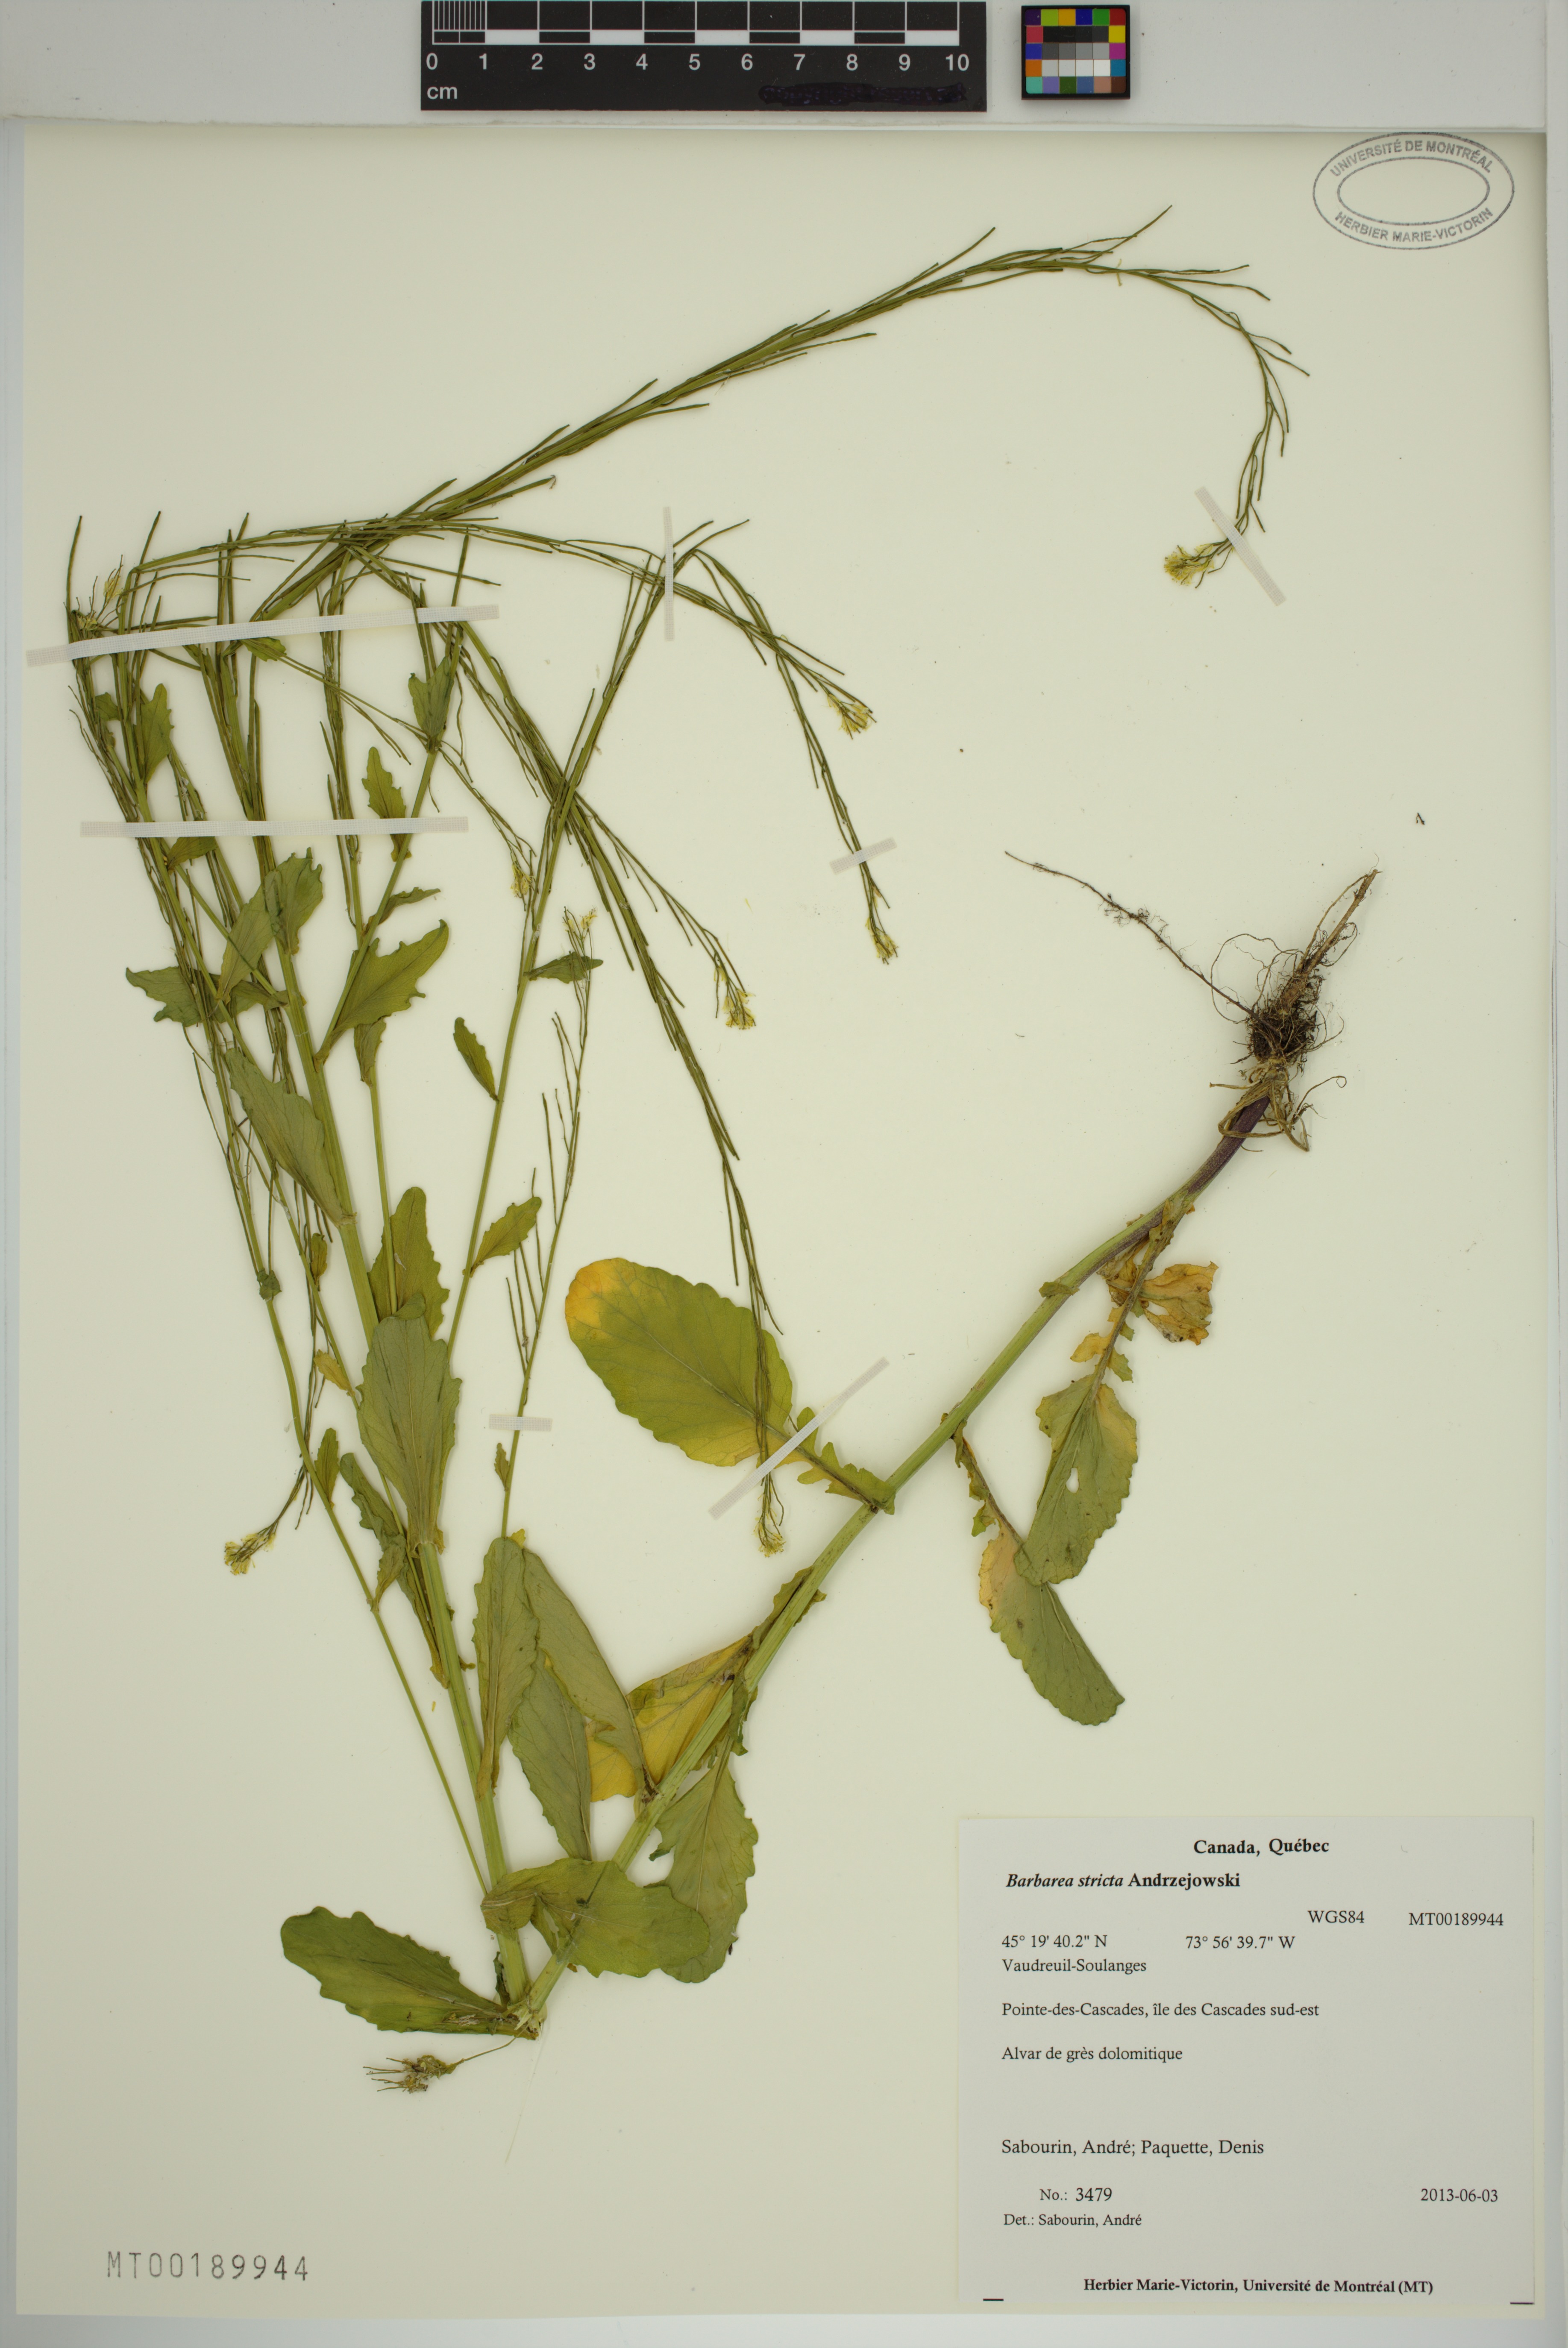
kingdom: Plantae
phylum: Tracheophyta
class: Magnoliopsida
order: Brassicales
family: Brassicaceae
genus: Barbarea
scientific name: Barbarea stricta
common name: Small-flowered winter-cress
